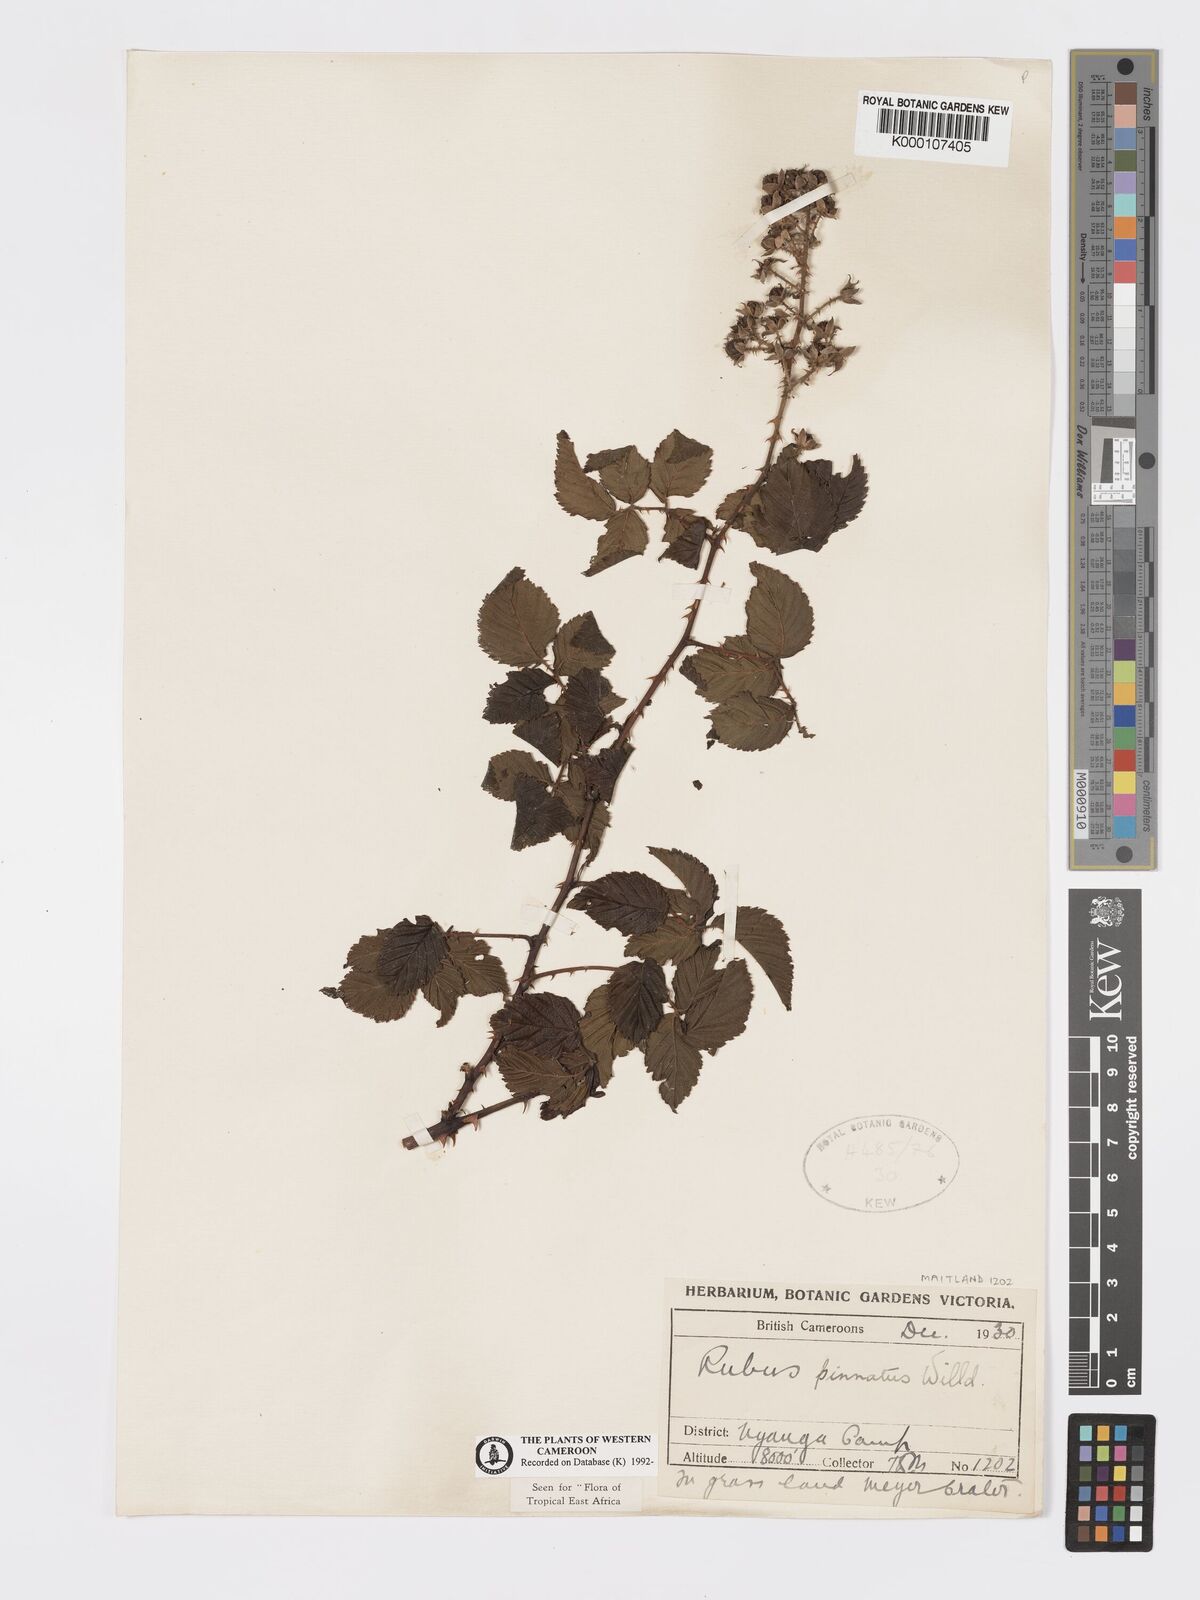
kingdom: Plantae
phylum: Tracheophyta
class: Magnoliopsida
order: Rosales
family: Rosaceae
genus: Rubus
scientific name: Rubus pinnatus
